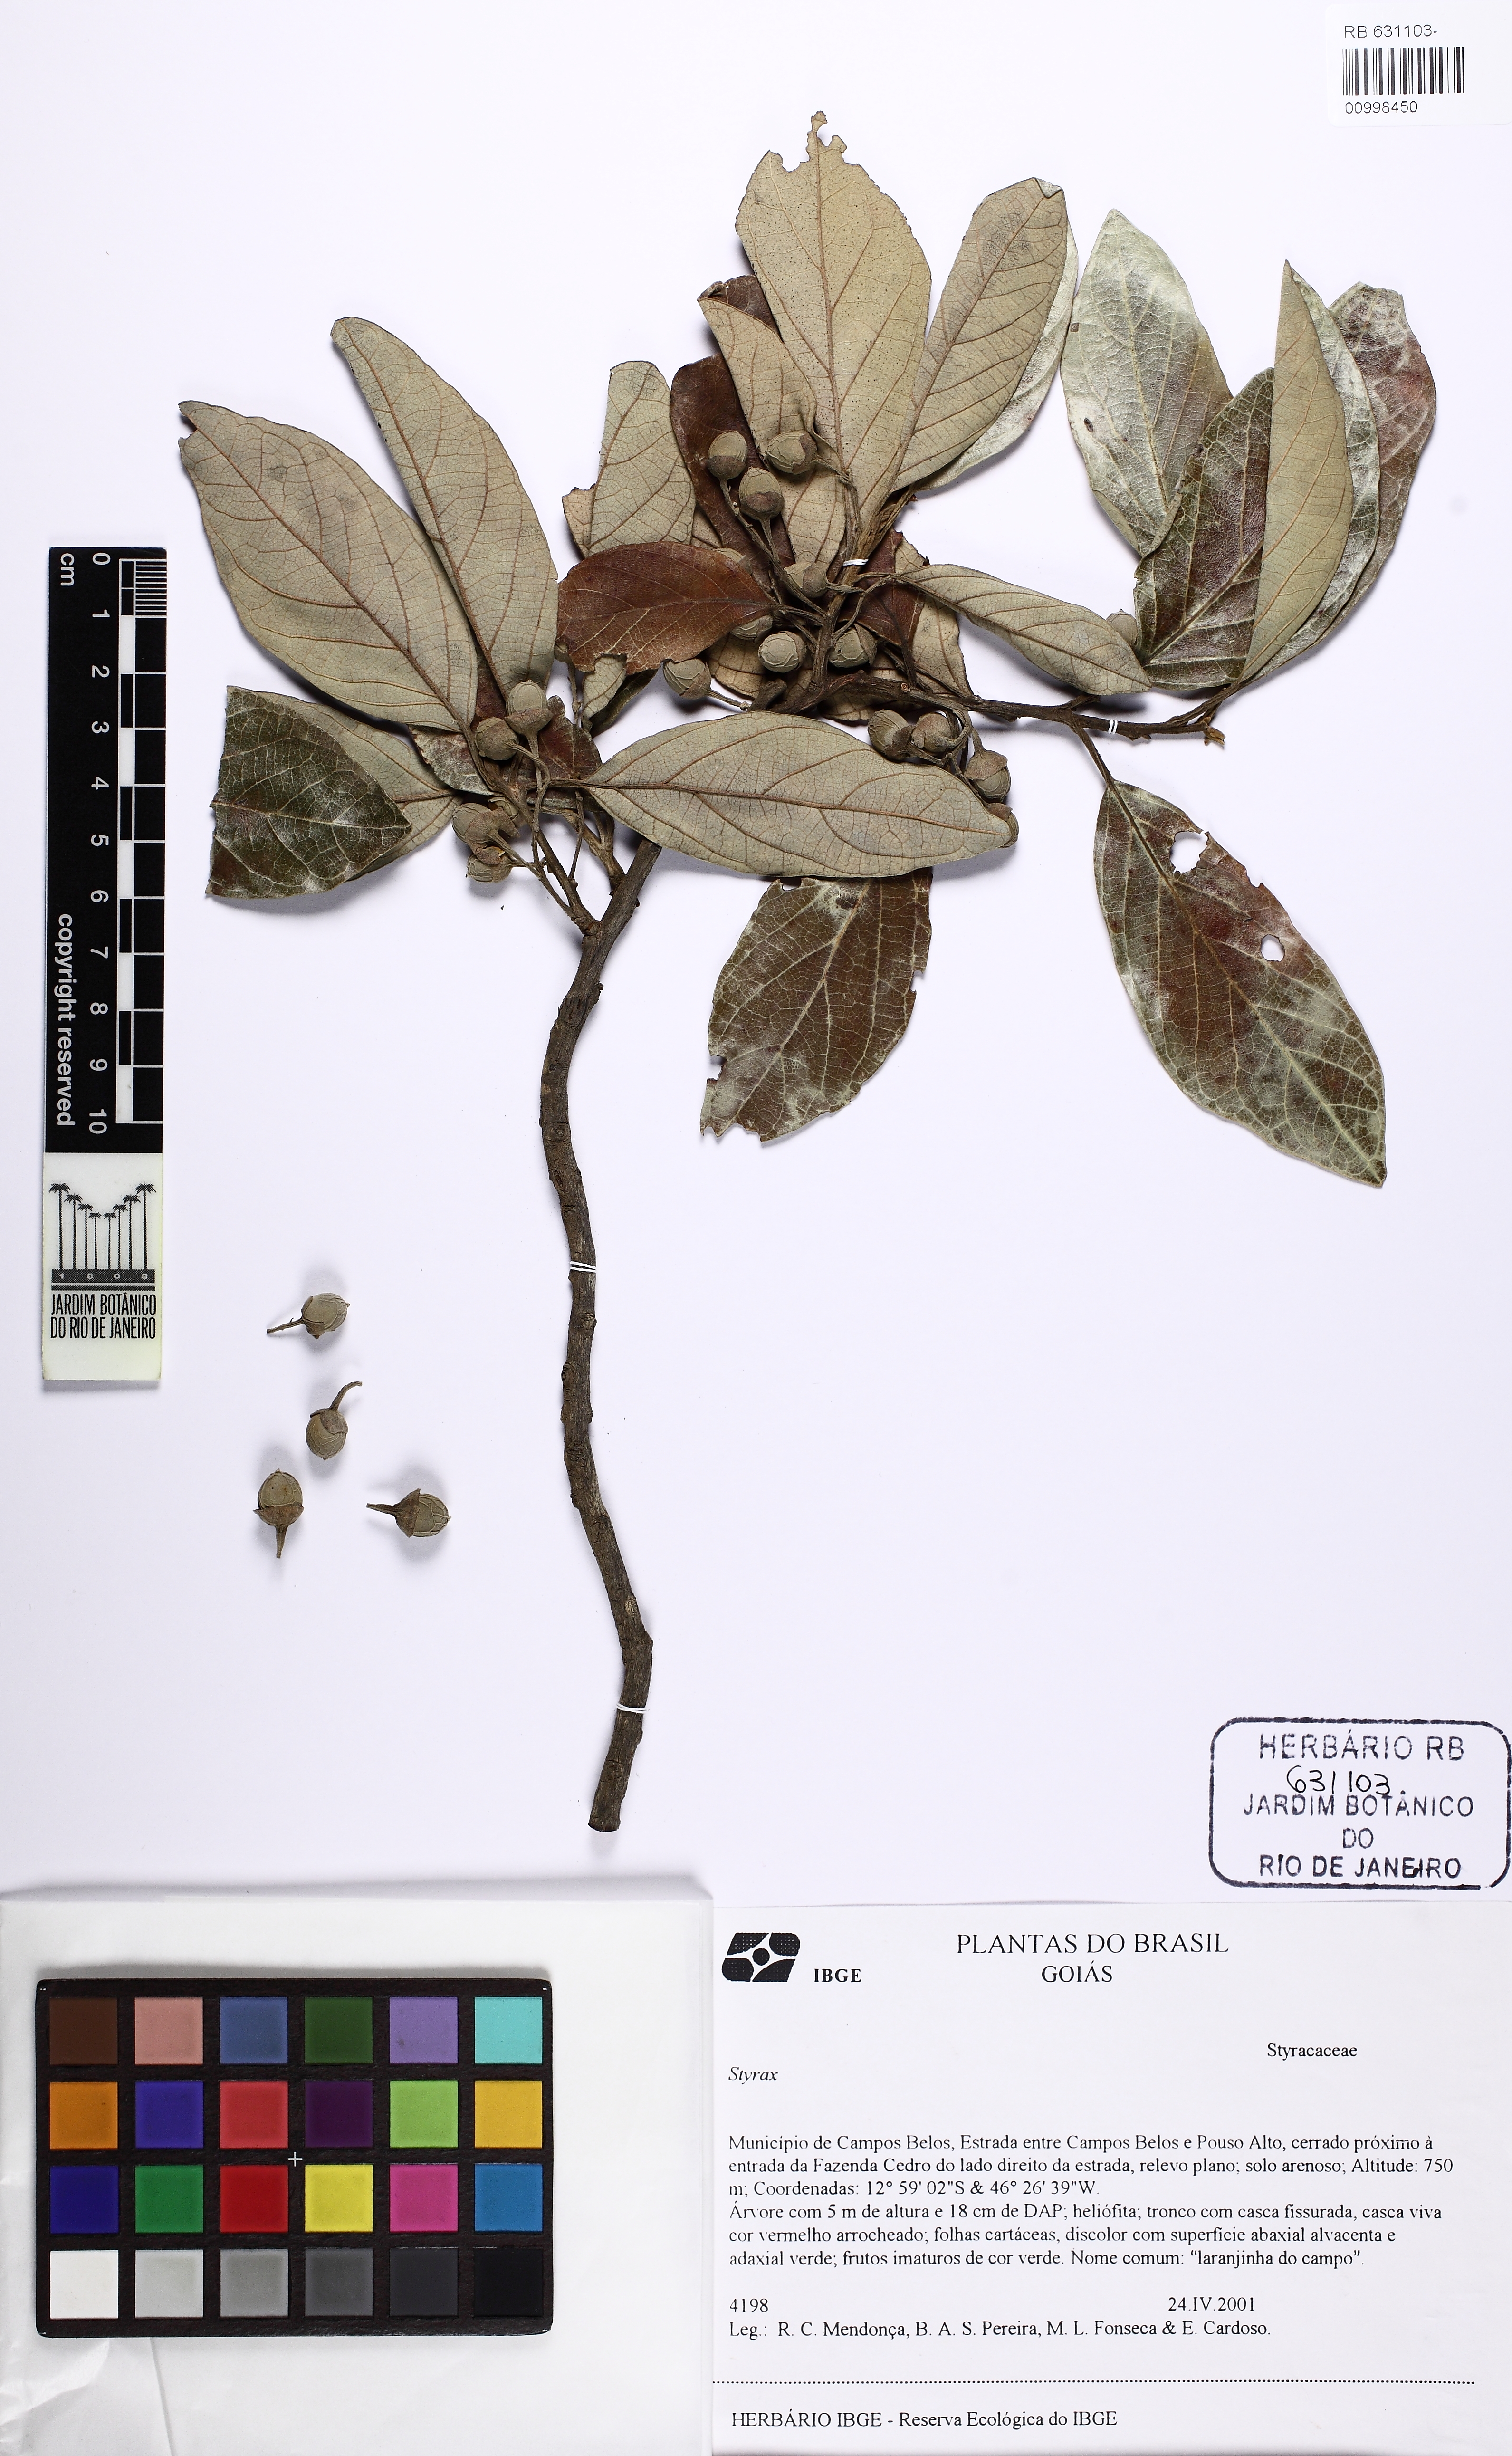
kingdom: Plantae
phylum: Tracheophyta
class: Magnoliopsida
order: Ericales
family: Styracaceae
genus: Styrax
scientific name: Styrax
